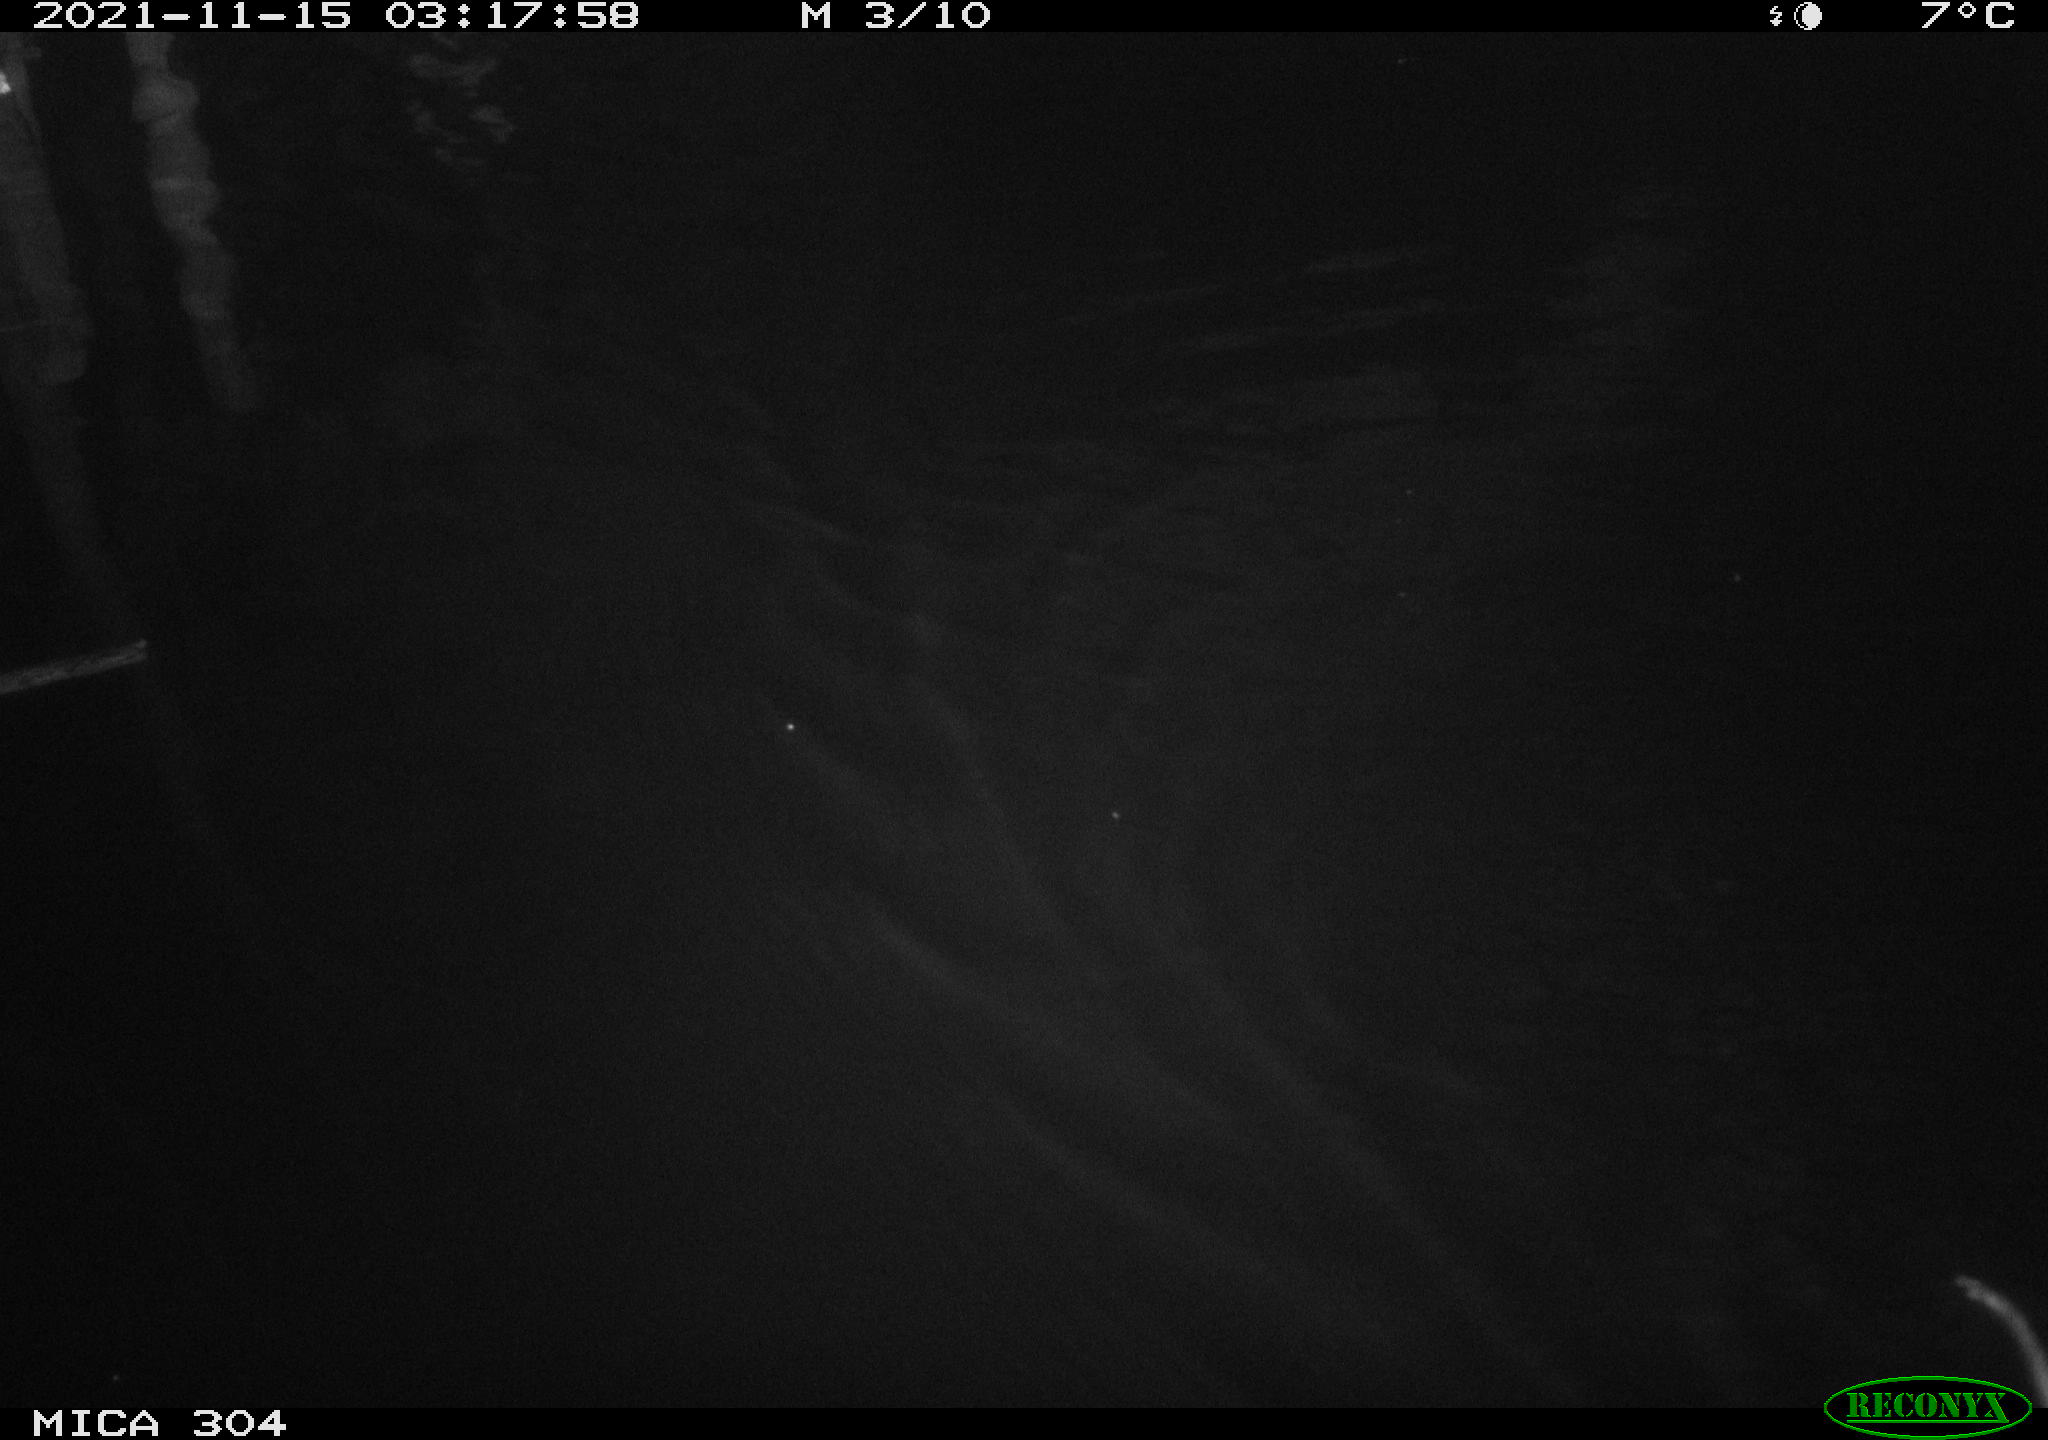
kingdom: Animalia
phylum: Chordata
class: Mammalia
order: Rodentia
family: Cricetidae
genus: Ondatra
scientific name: Ondatra zibethicus
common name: Muskrat
